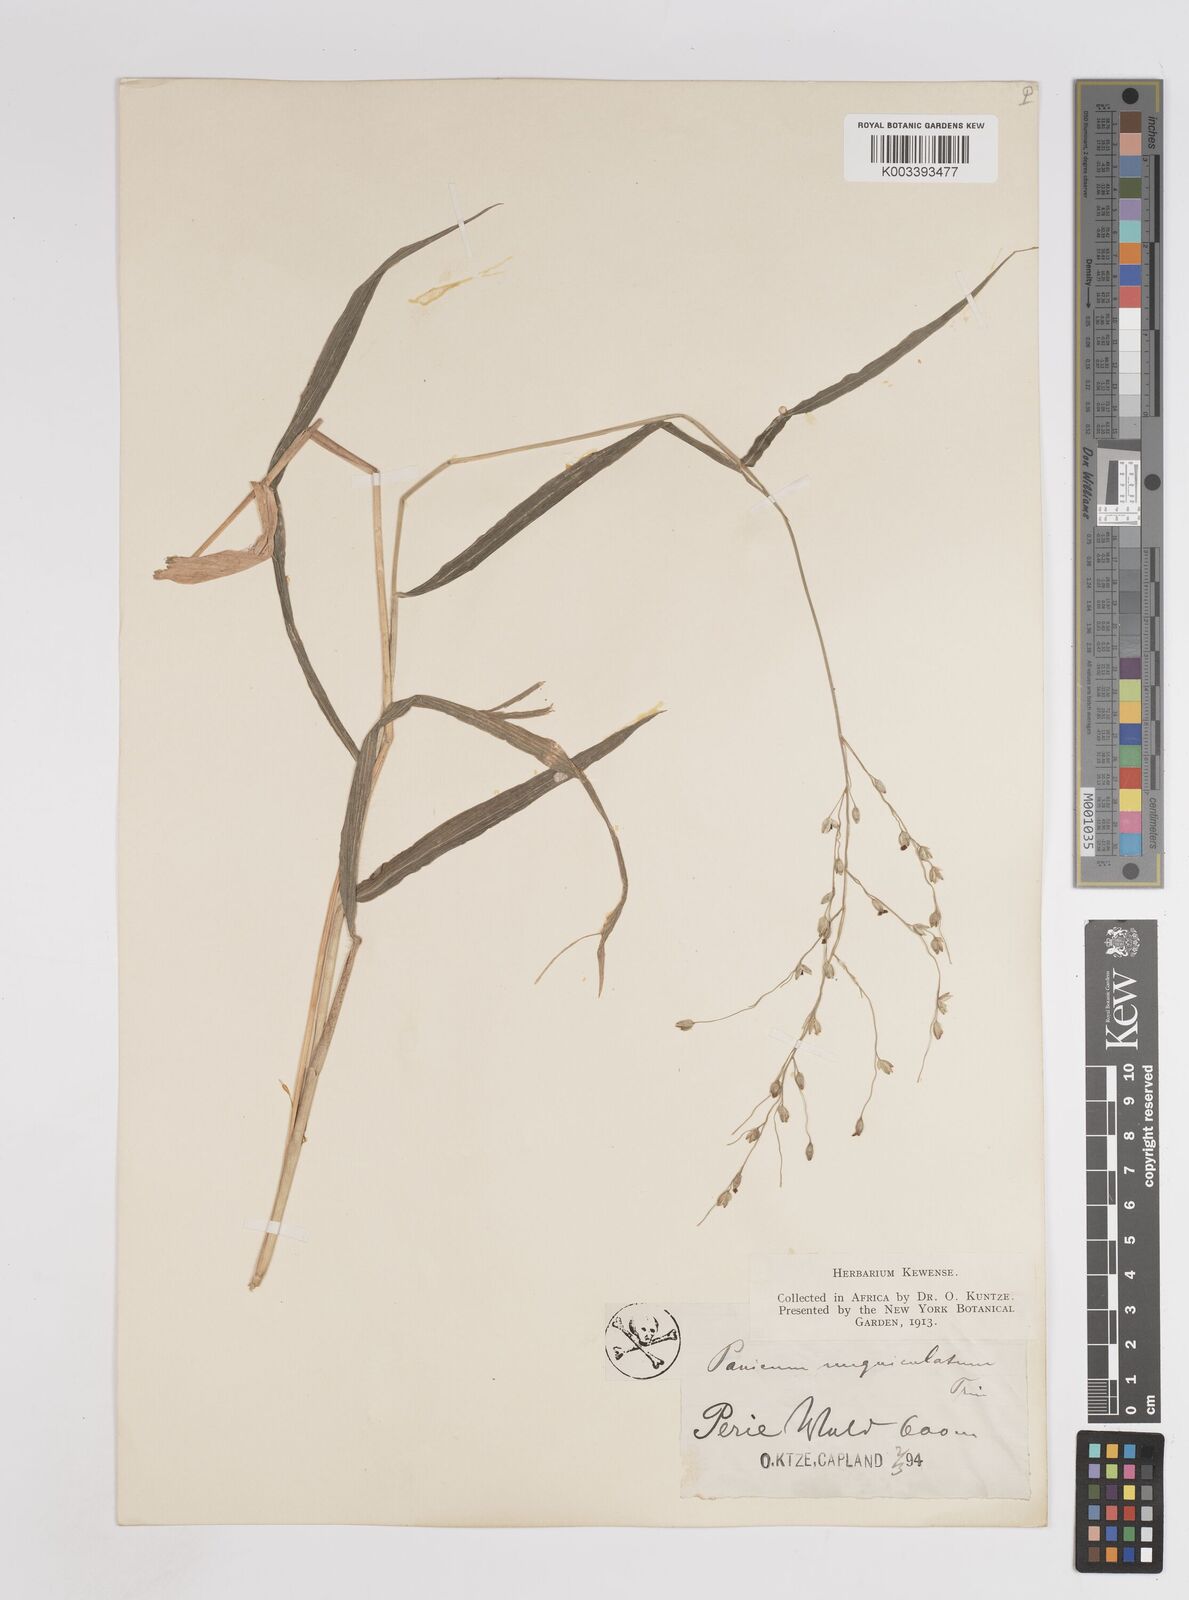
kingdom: Plantae
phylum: Tracheophyta
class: Liliopsida
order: Poales
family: Poaceae
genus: Panicum
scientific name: Panicum deustum
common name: Reed panicum
